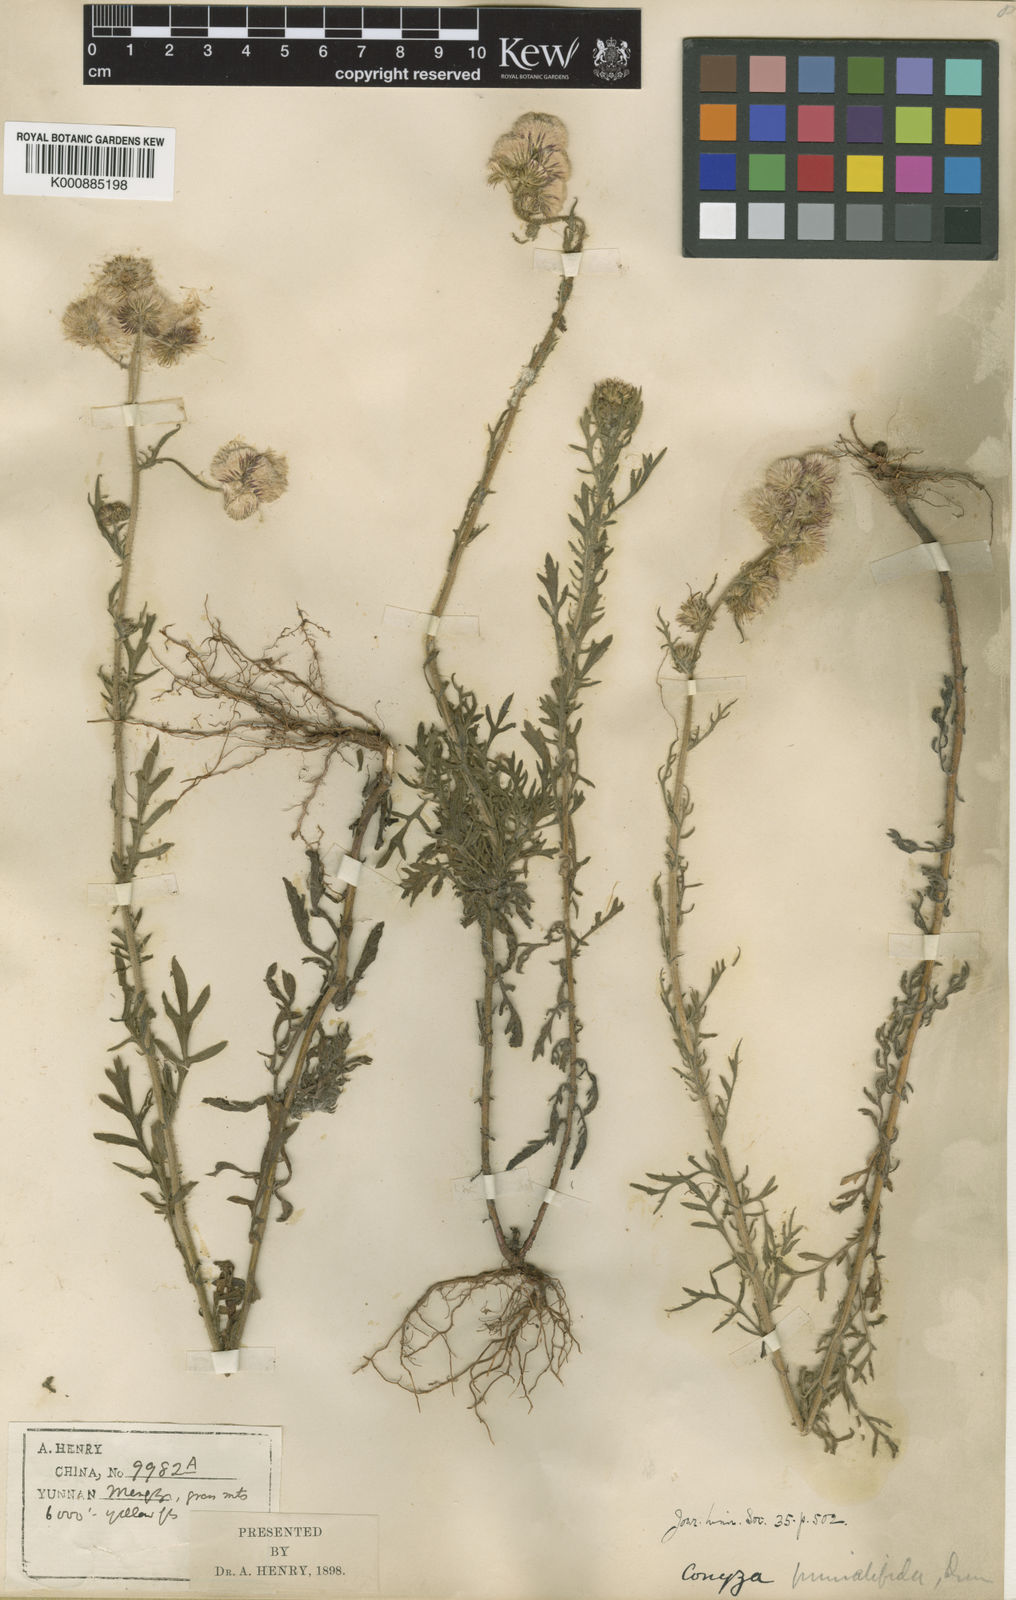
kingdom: Plantae
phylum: Tracheophyta
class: Magnoliopsida
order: Asterales
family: Asteraceae
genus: Nidorella
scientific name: Nidorella pinnatifida
